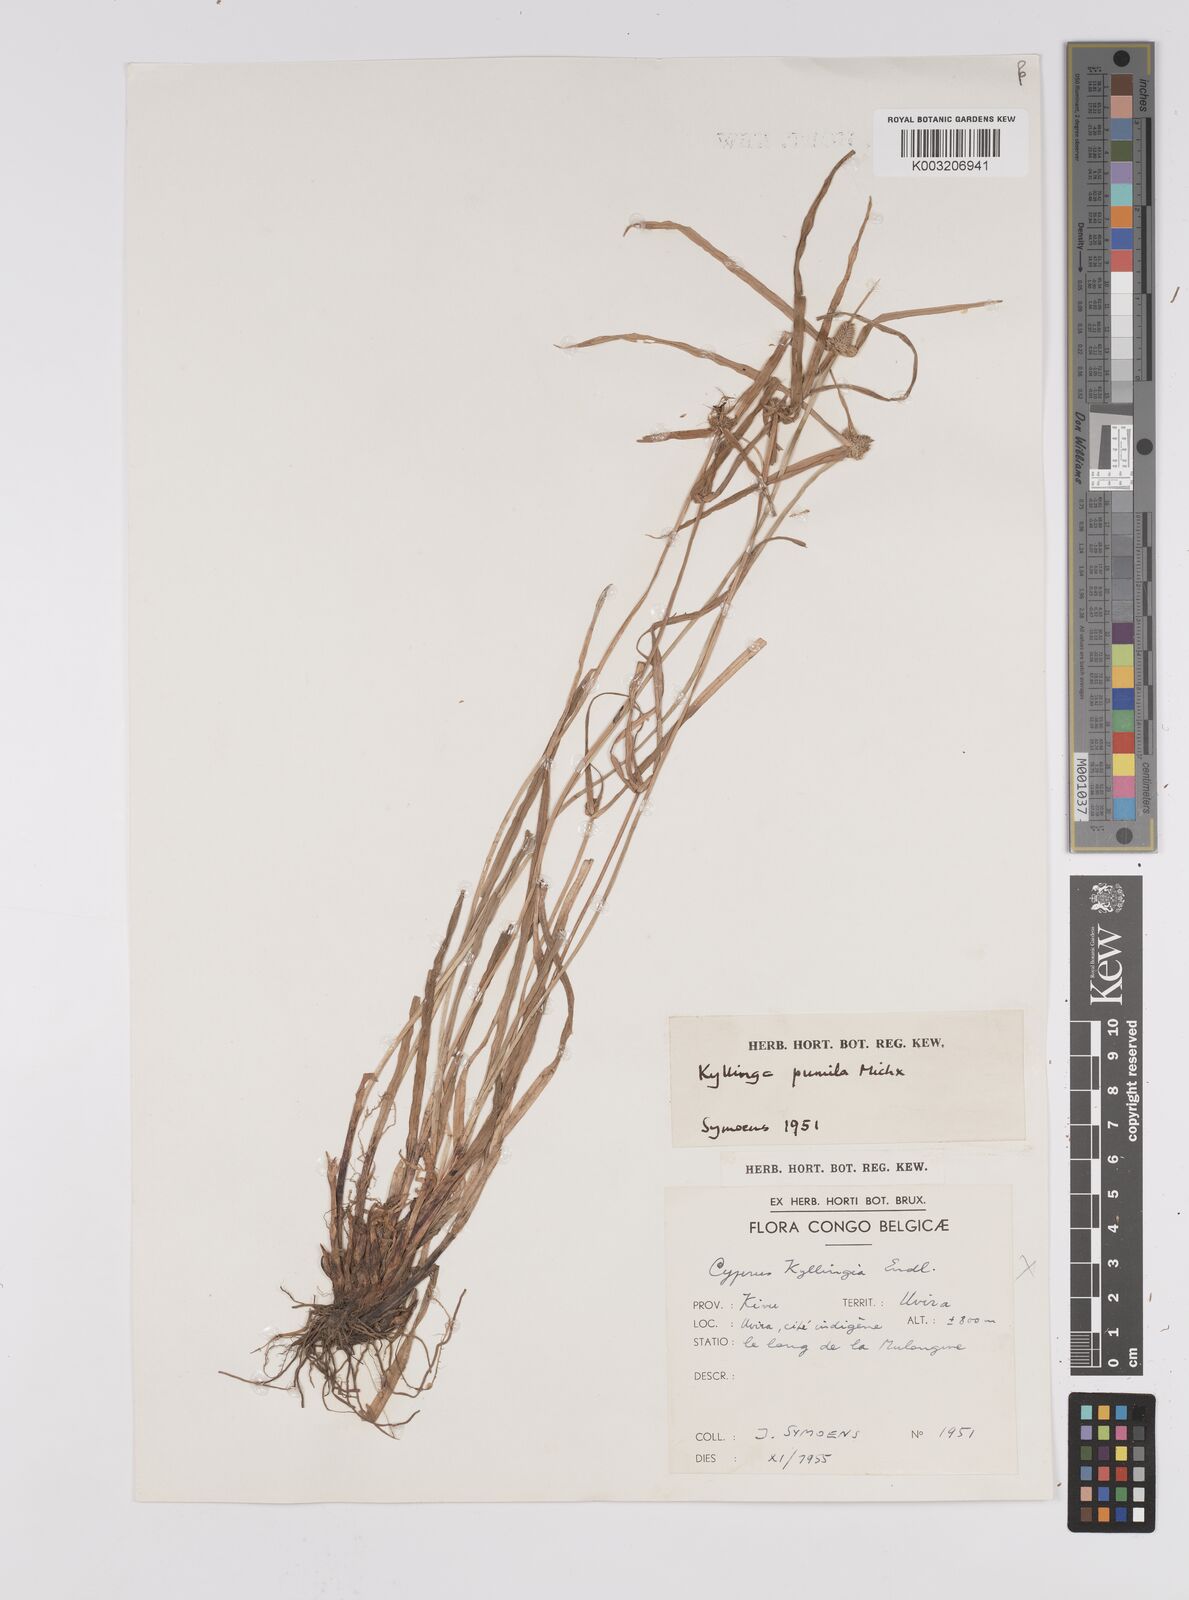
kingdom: Plantae
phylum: Tracheophyta
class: Liliopsida
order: Poales
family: Cyperaceae
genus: Cyperus
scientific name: Cyperus hortensis
